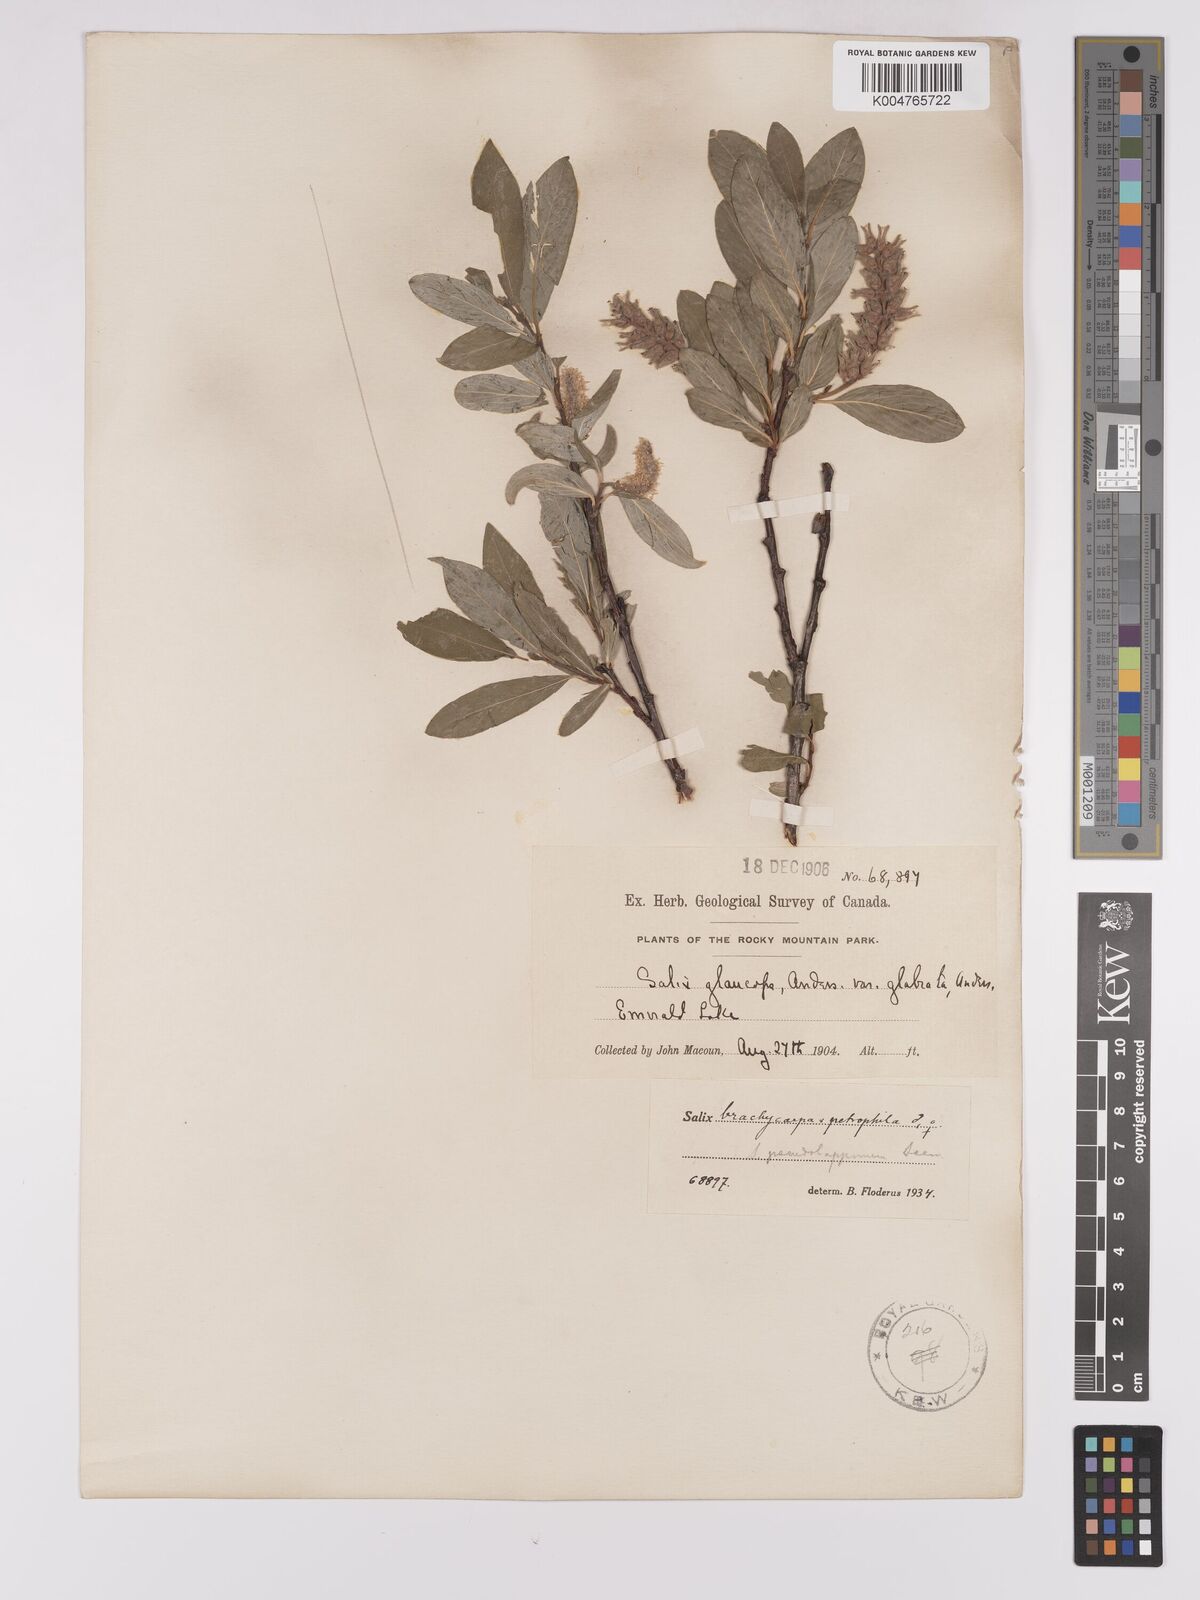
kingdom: Plantae
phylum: Tracheophyta
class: Magnoliopsida
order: Malpighiales
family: Salicaceae
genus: Salix
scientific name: Salix brachycarpa
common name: Barren-ground willow
